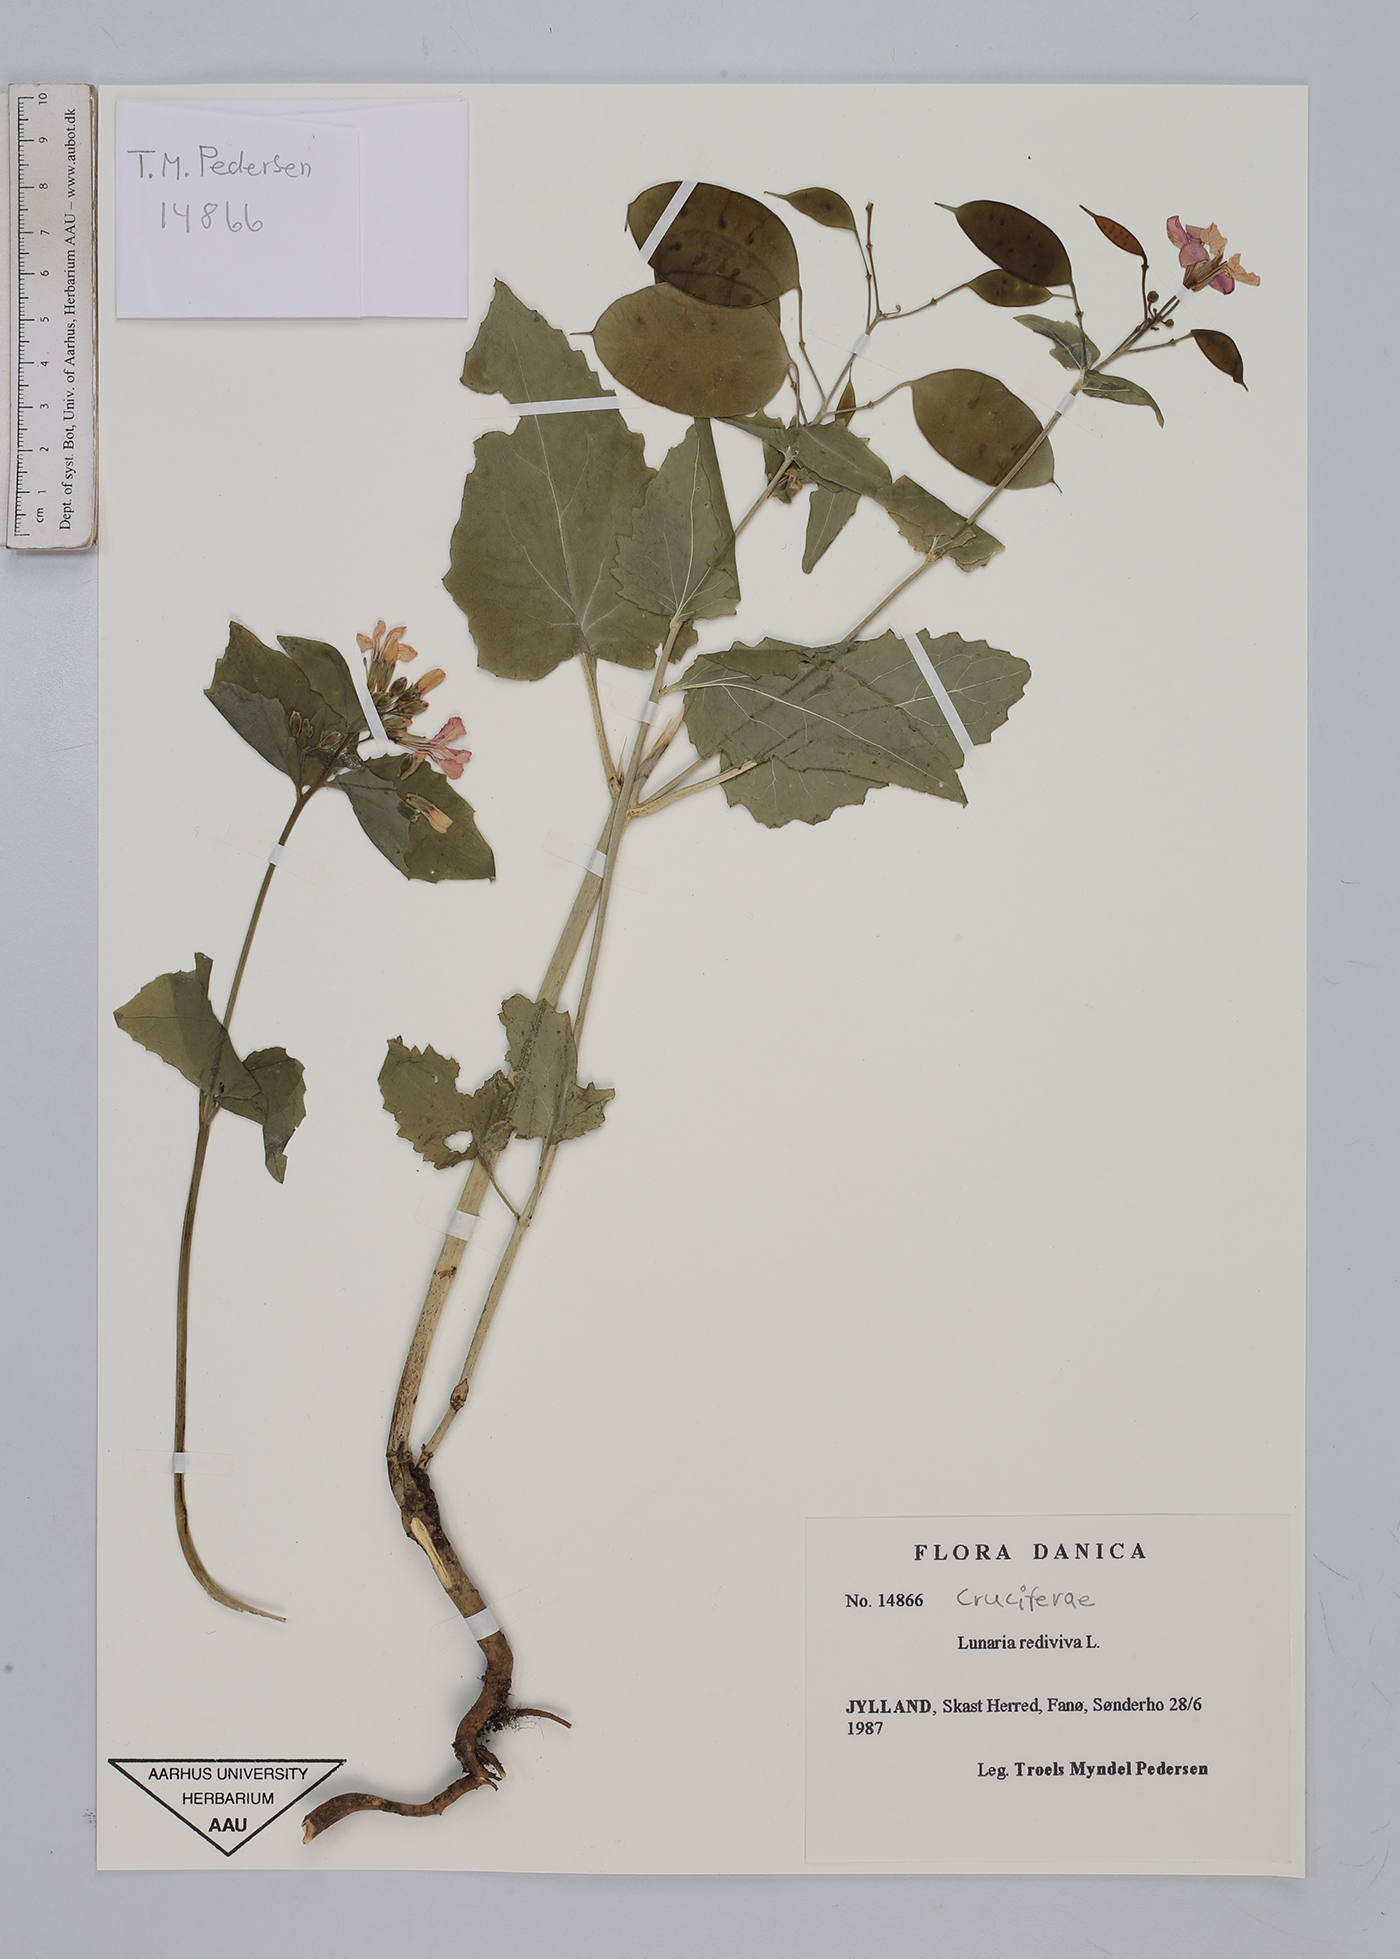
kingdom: Plantae
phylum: Tracheophyta
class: Magnoliopsida
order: Brassicales
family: Brassicaceae
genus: Lunaria
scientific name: Lunaria rediviva
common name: Perennial honesty
